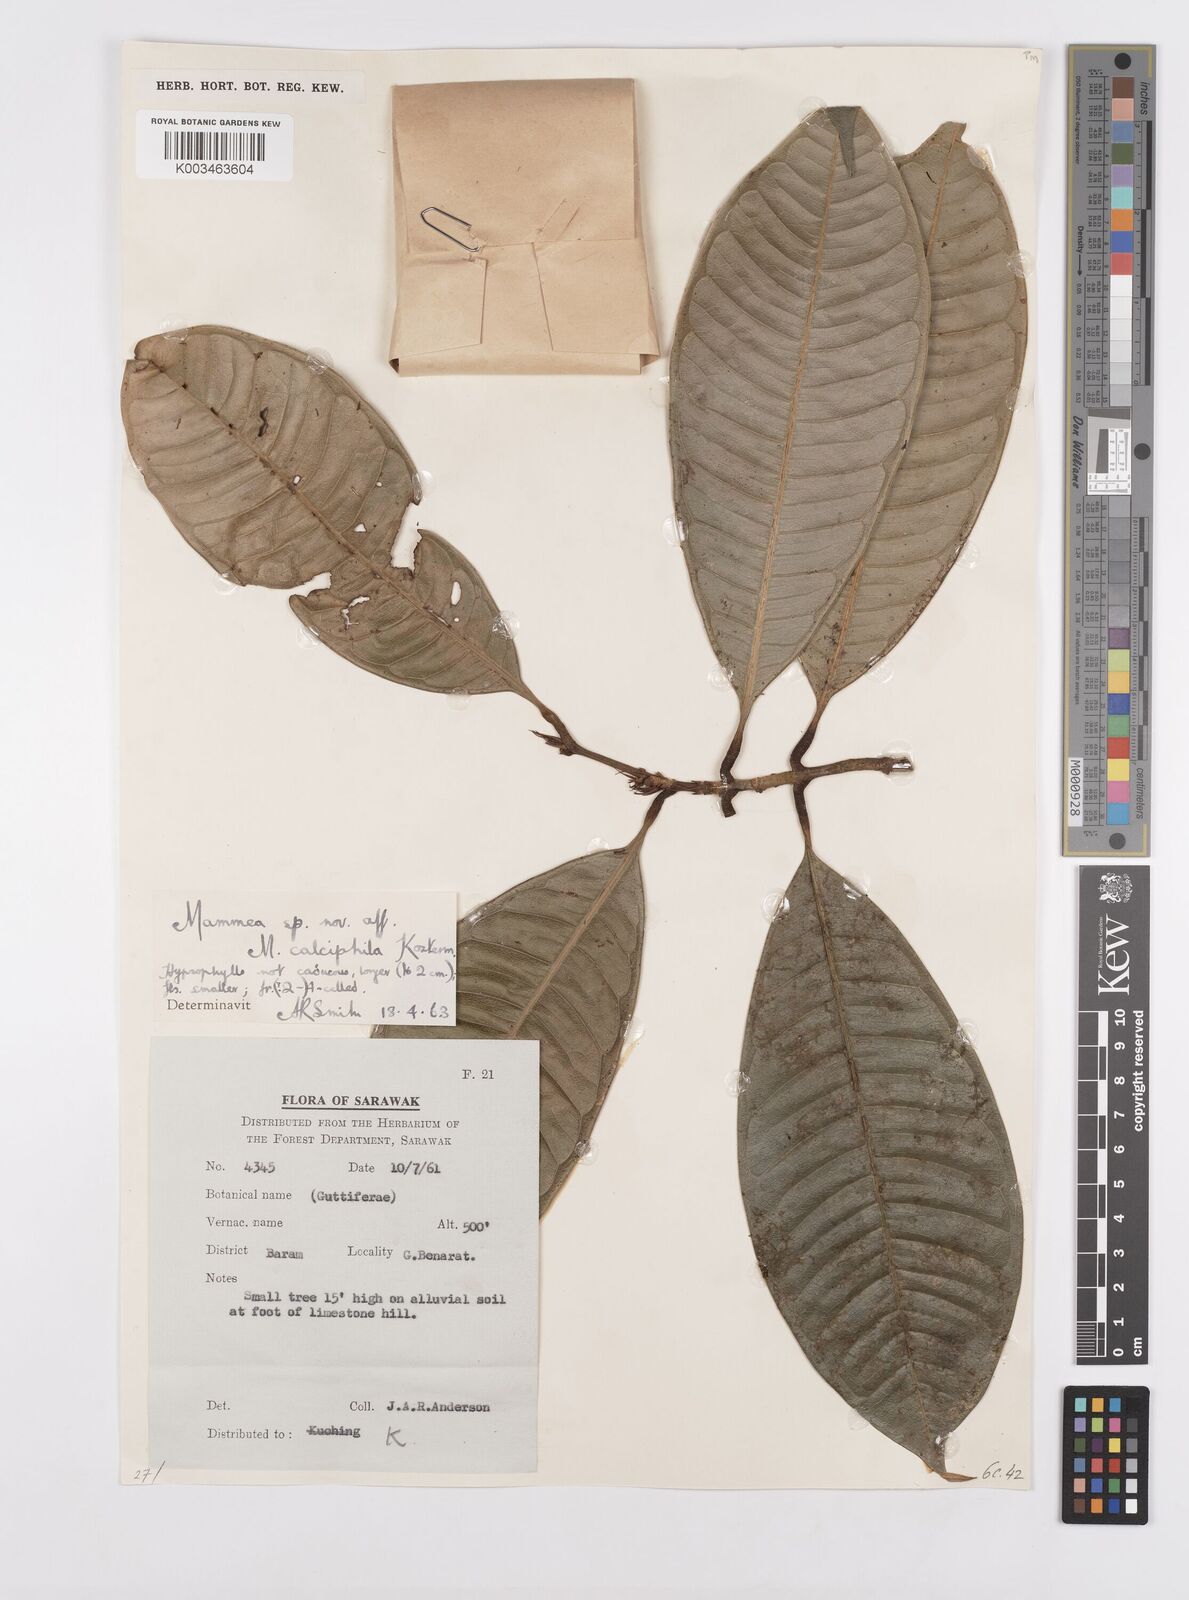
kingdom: Plantae
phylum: Tracheophyta
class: Magnoliopsida
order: Malpighiales
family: Calophyllaceae
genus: Mammea
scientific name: Mammea calciphila
